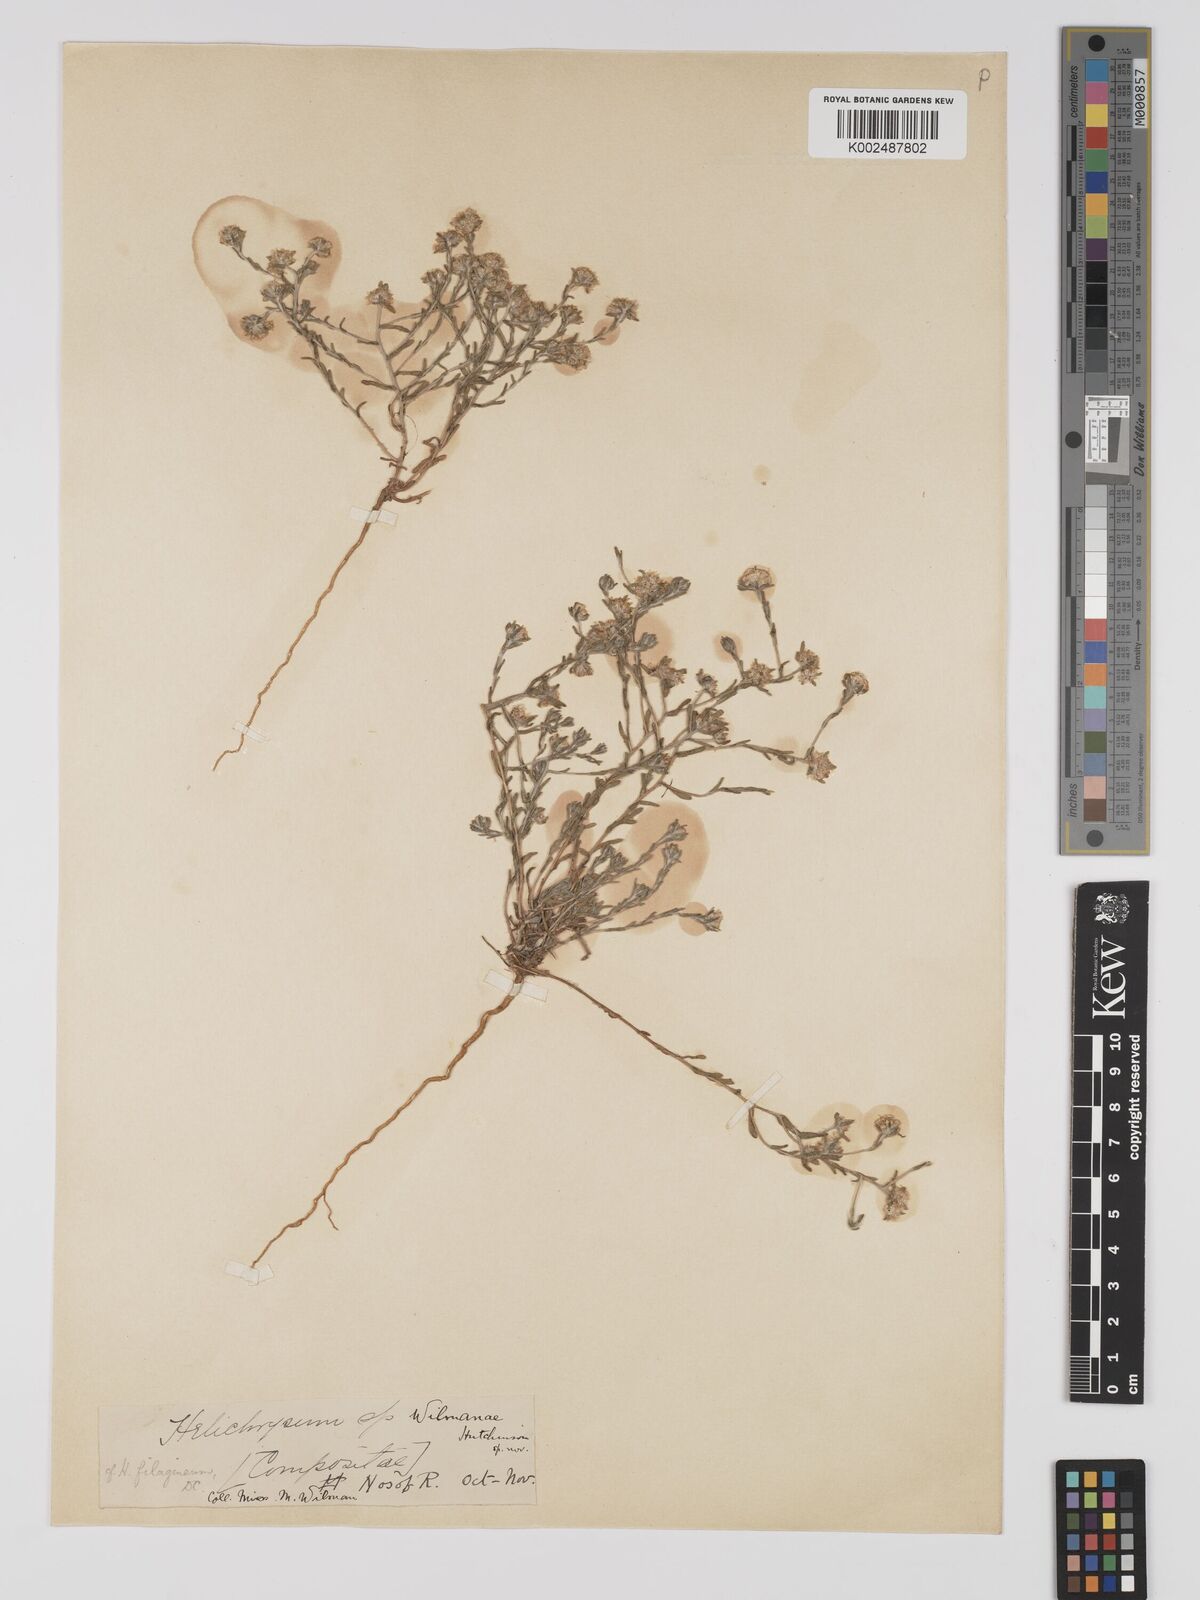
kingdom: Plantae
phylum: Tracheophyta
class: Magnoliopsida
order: Asterales
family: Asteraceae
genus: Helichrysum
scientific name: Helichrysum arenicola
